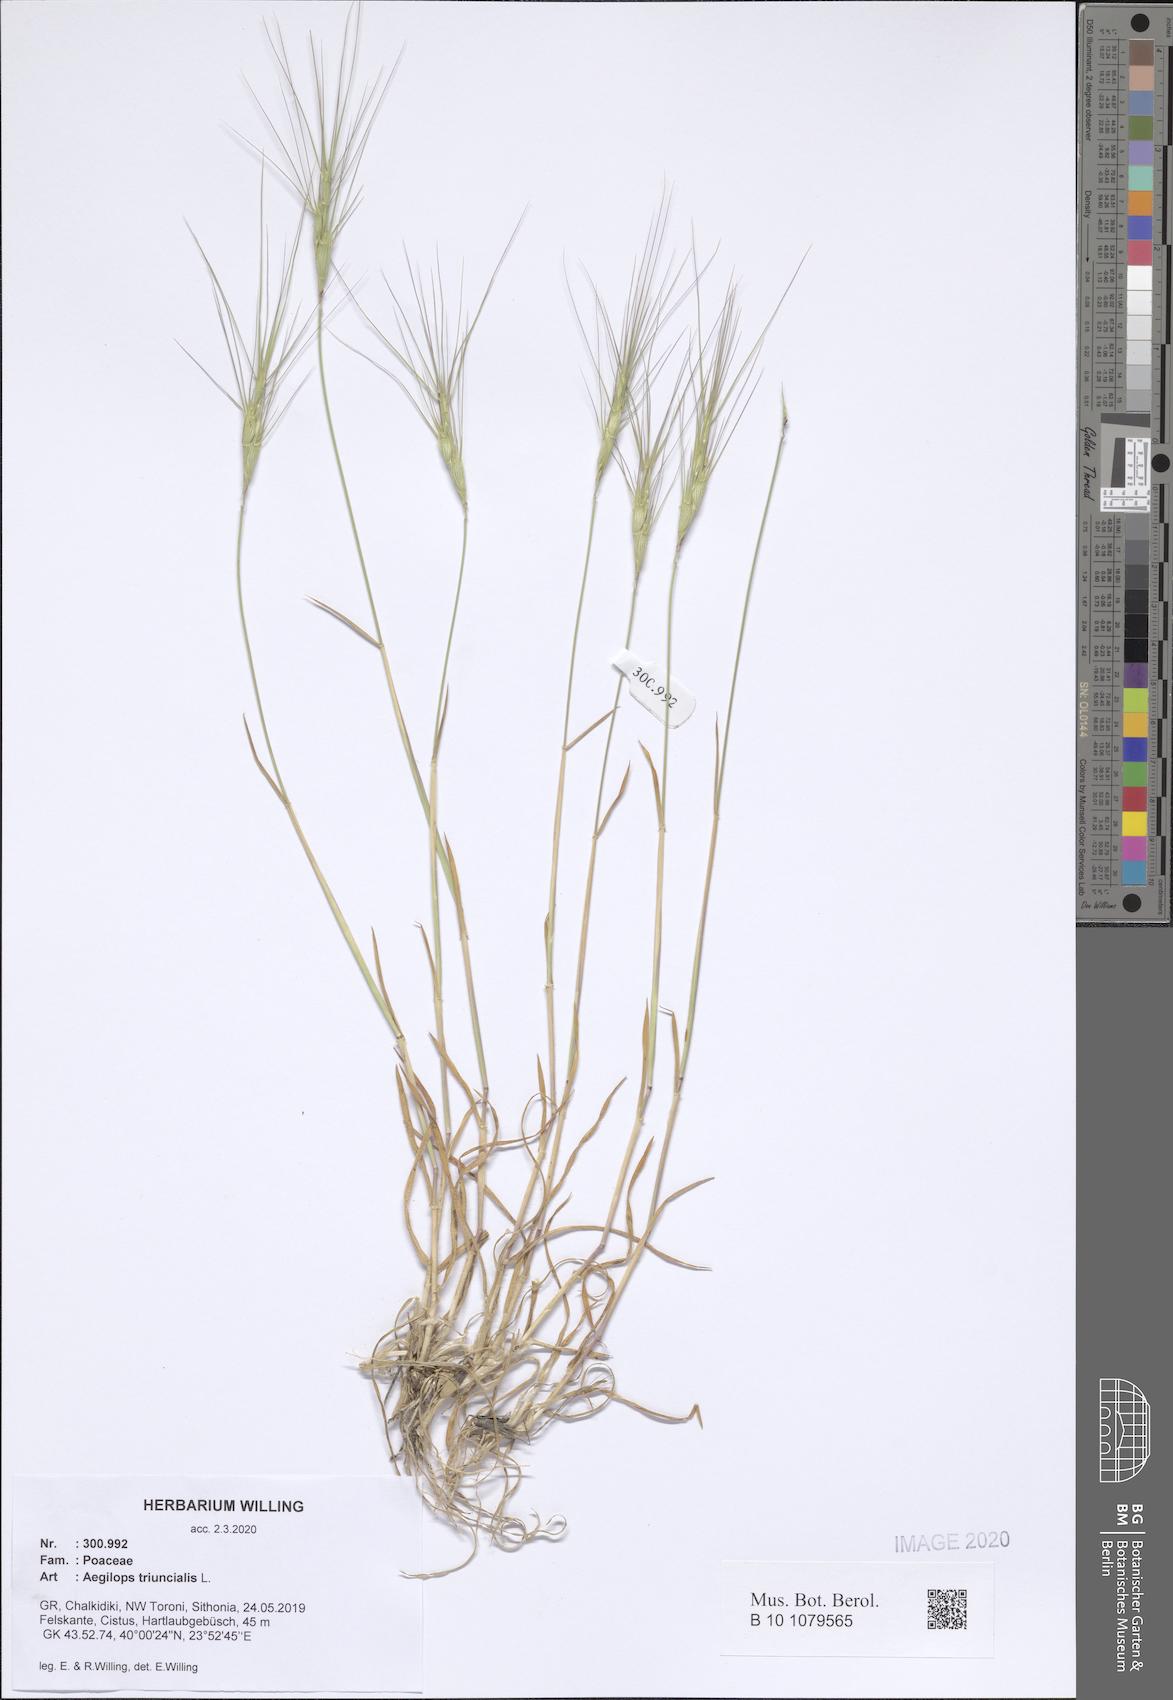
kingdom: Plantae
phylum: Tracheophyta
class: Liliopsida
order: Poales
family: Poaceae
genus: Aegilops
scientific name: Aegilops triuncialis
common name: Barb goat grass
